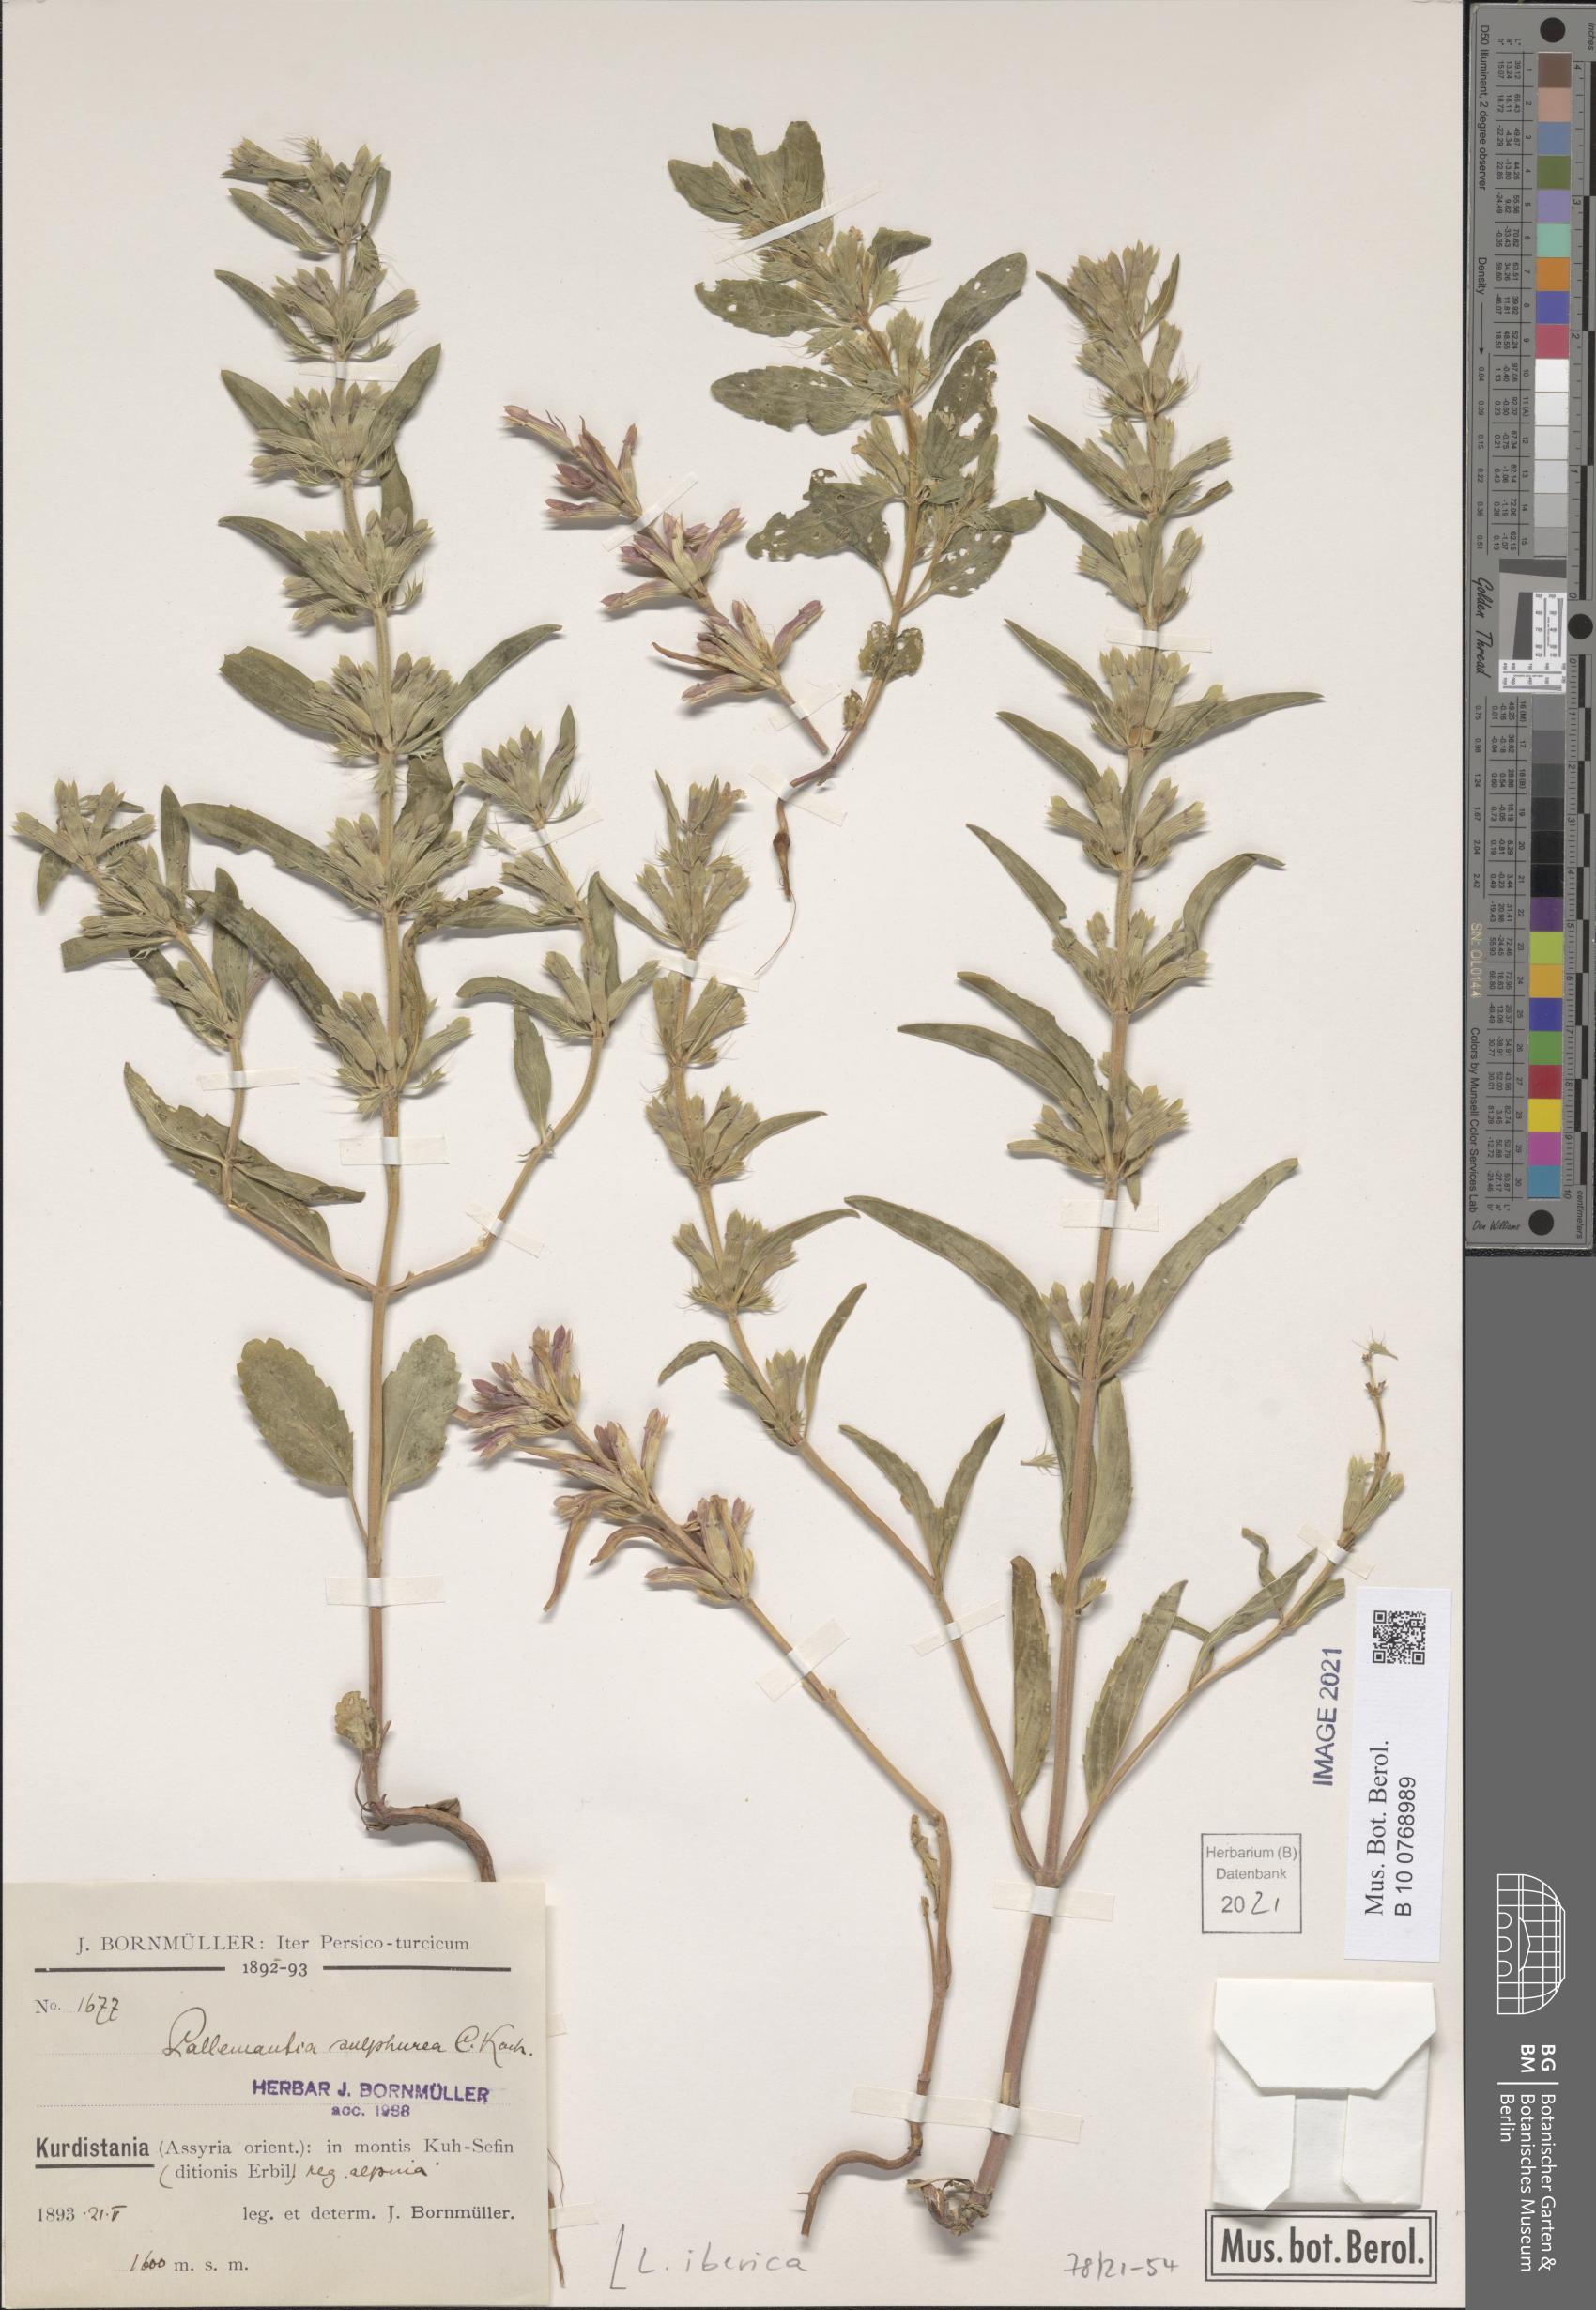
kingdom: Plantae
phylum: Tracheophyta
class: Magnoliopsida
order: Lamiales
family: Lamiaceae
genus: Lallemantia
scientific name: Lallemantia iberica
